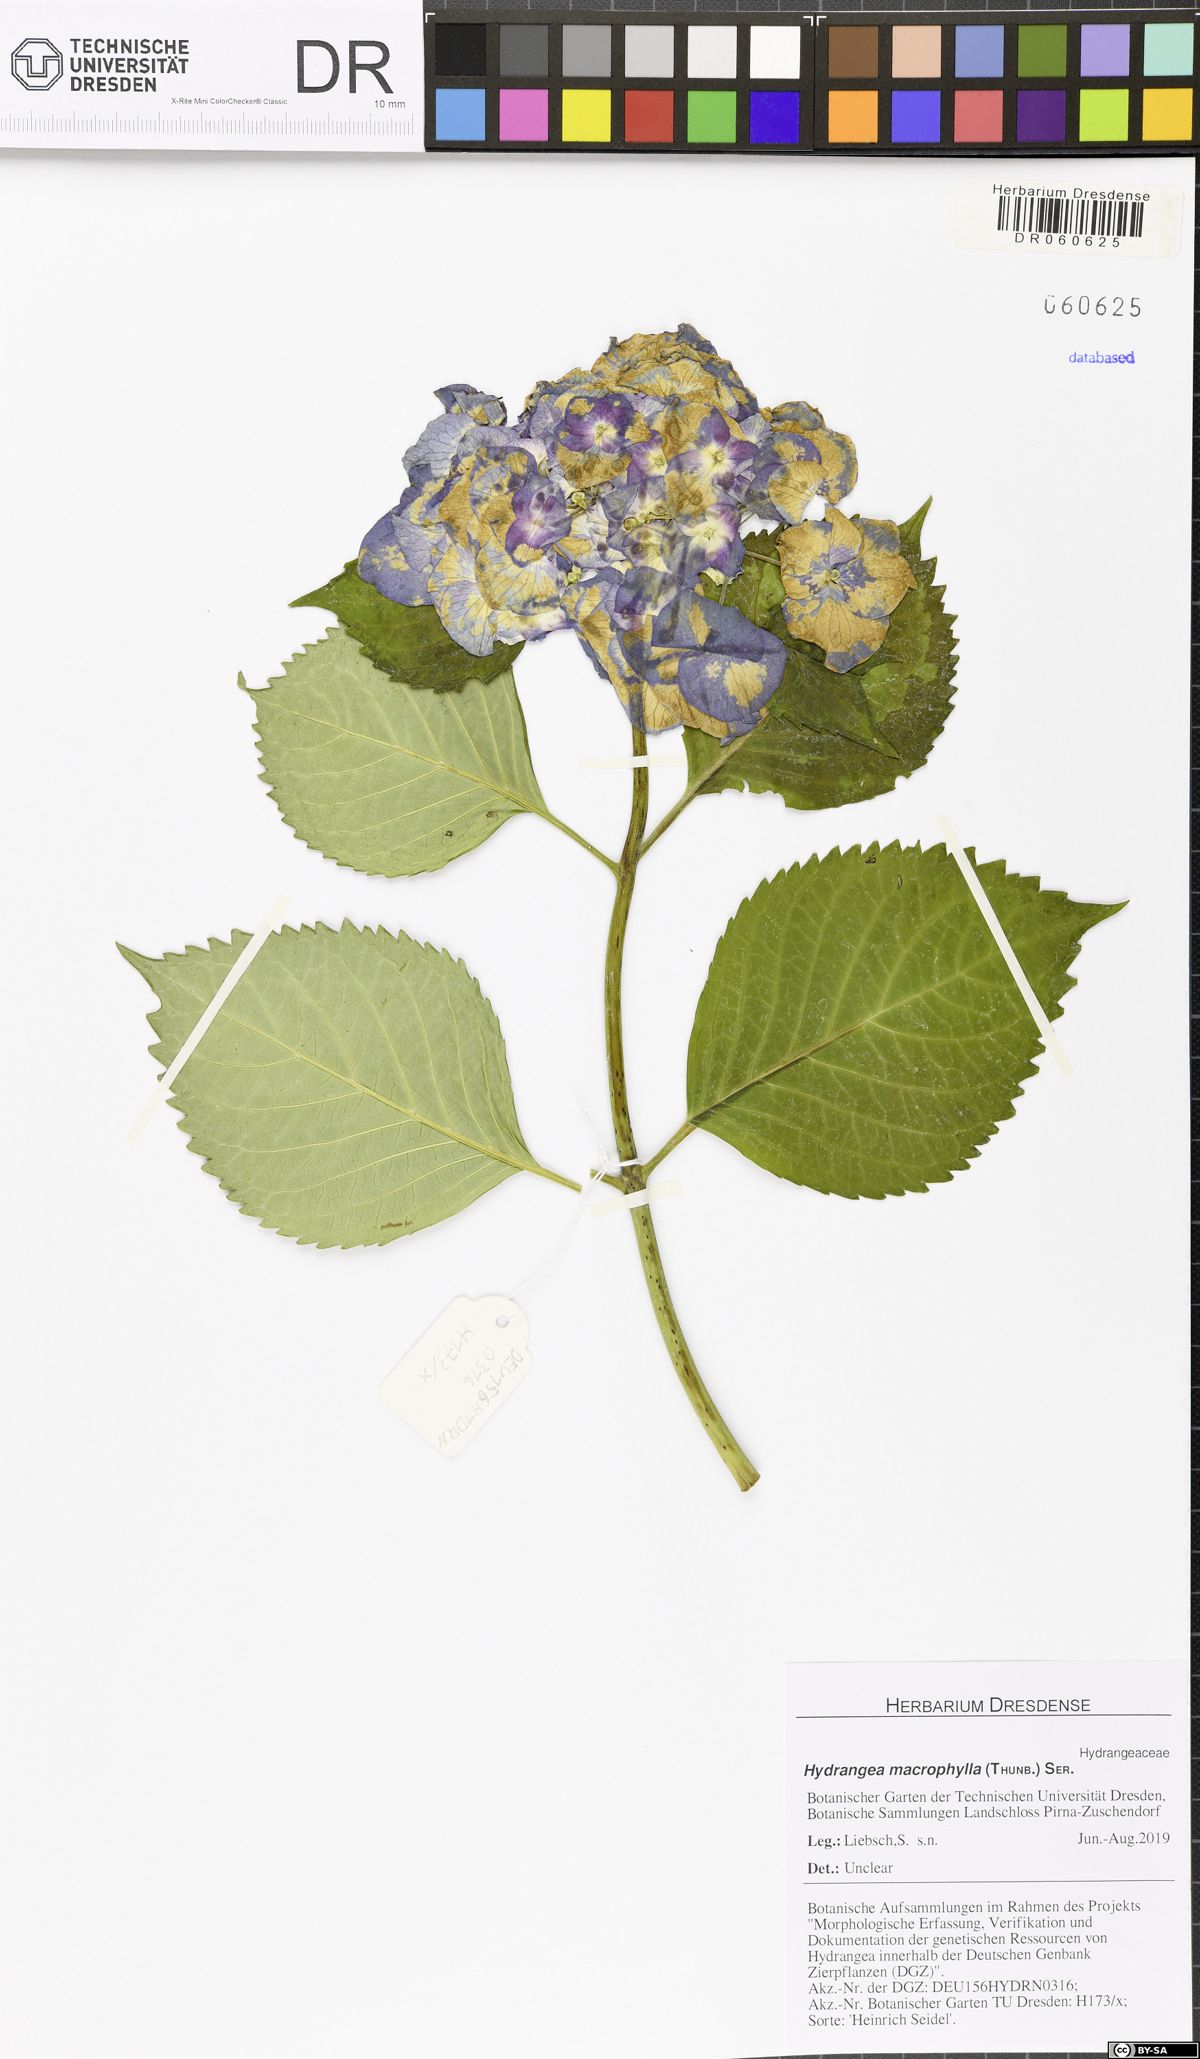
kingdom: Plantae
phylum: Tracheophyta
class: Magnoliopsida
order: Cornales
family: Hydrangeaceae
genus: Hydrangea
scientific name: Hydrangea macrophylla
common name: Hydrangea
